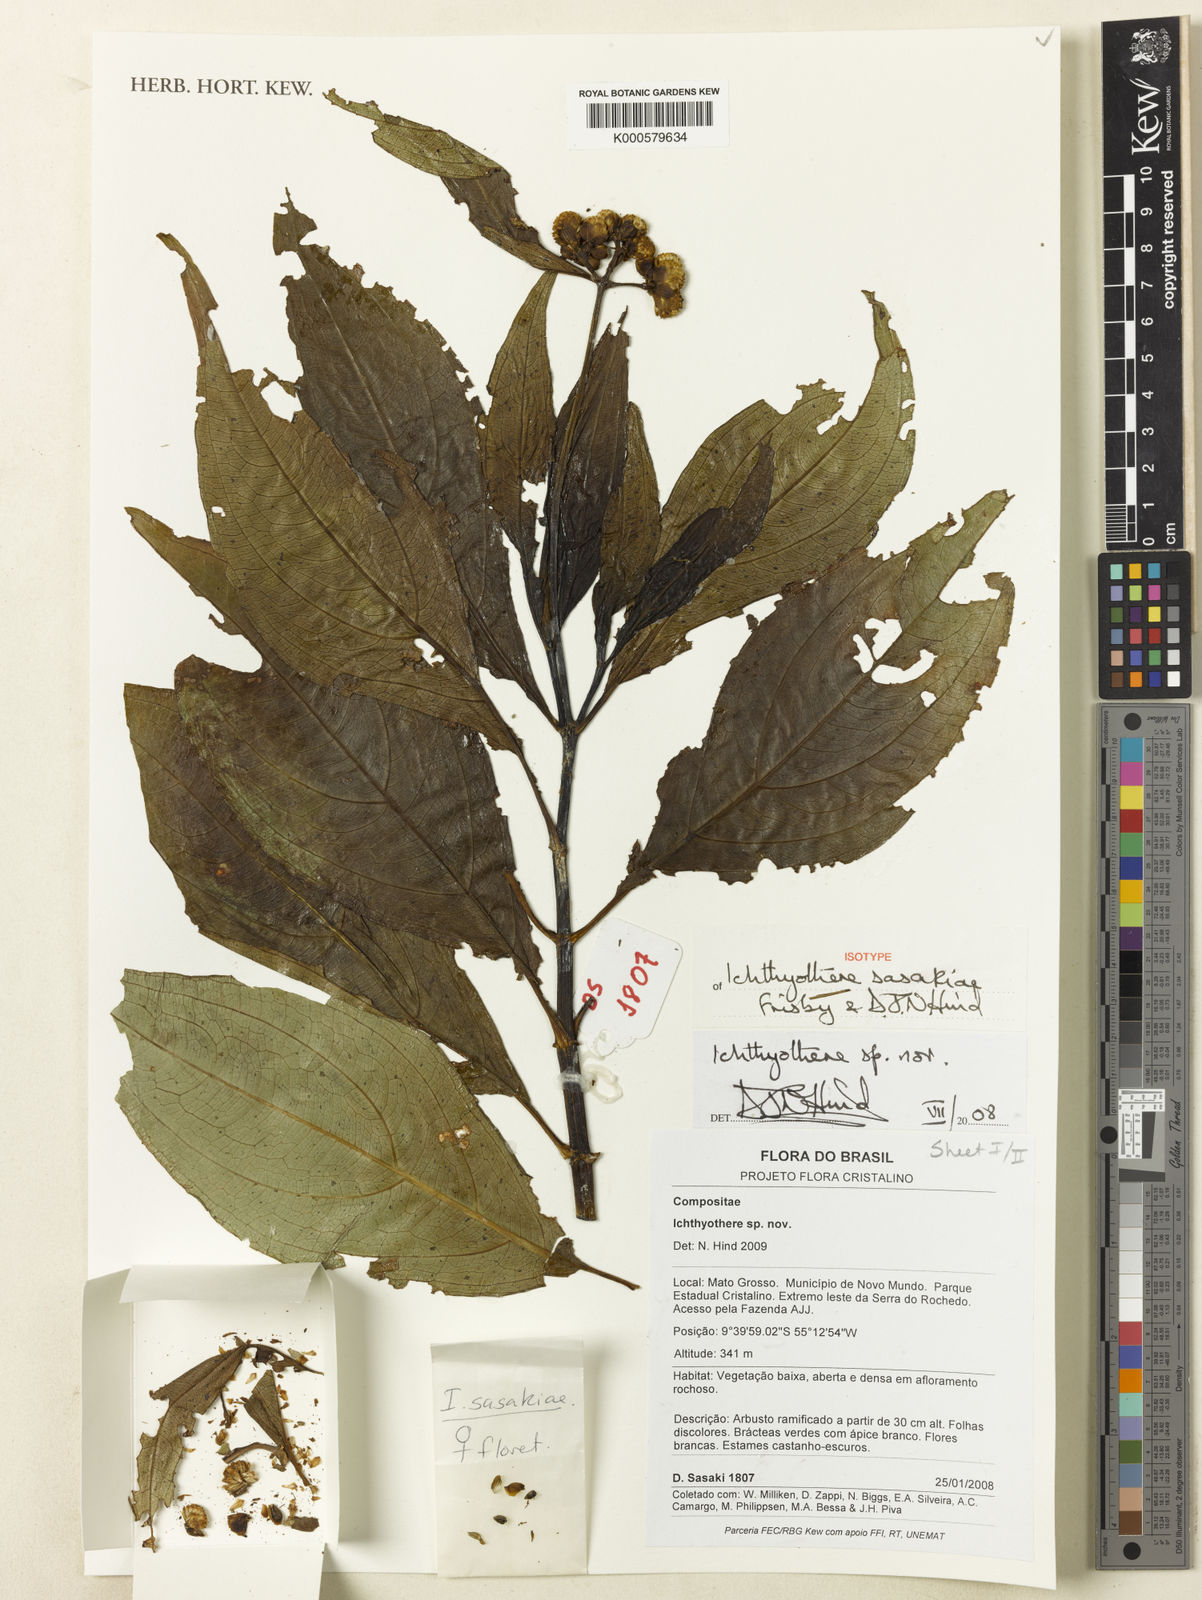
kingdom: Plantae
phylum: Tracheophyta
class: Magnoliopsida
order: Asterales
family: Asteraceae
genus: Ichthyothere
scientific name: Ichthyothere sasakiae
